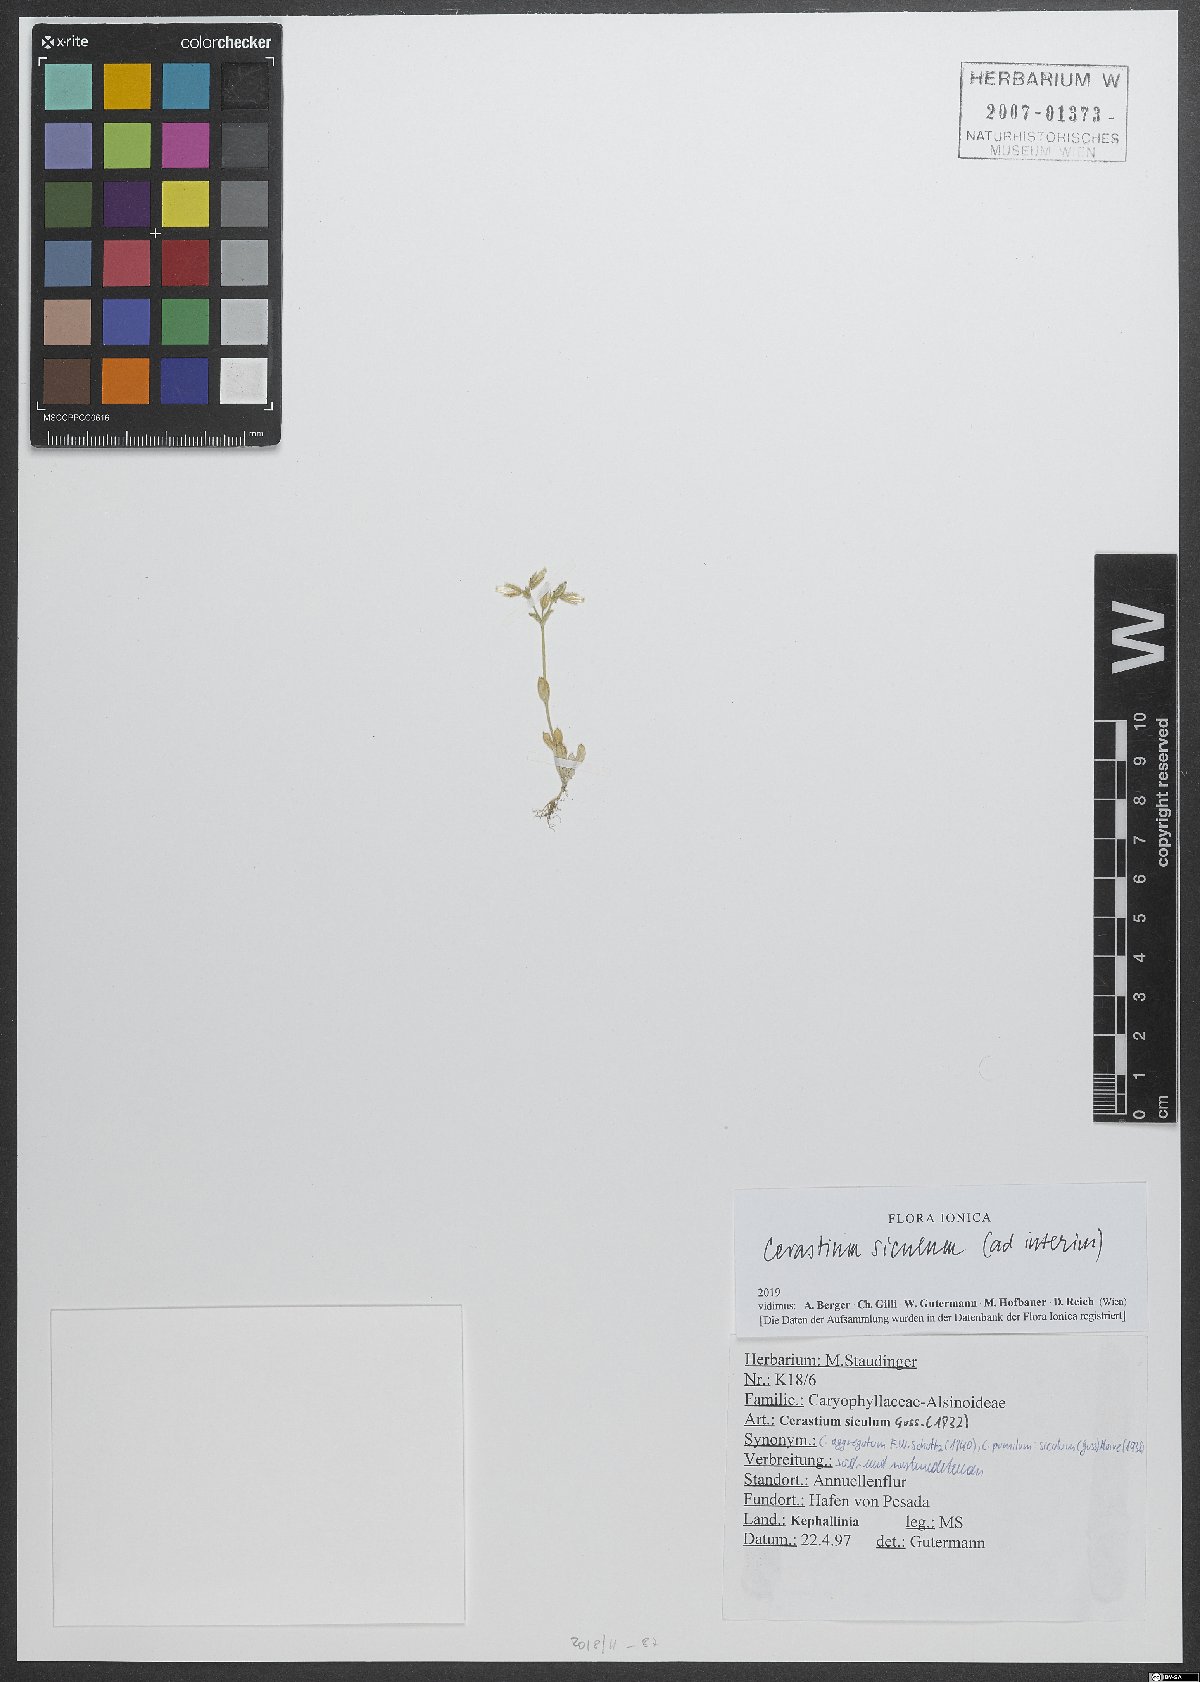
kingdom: Plantae
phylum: Tracheophyta
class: Magnoliopsida
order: Caryophyllales
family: Caryophyllaceae
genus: Cerastium
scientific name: Cerastium siculum
